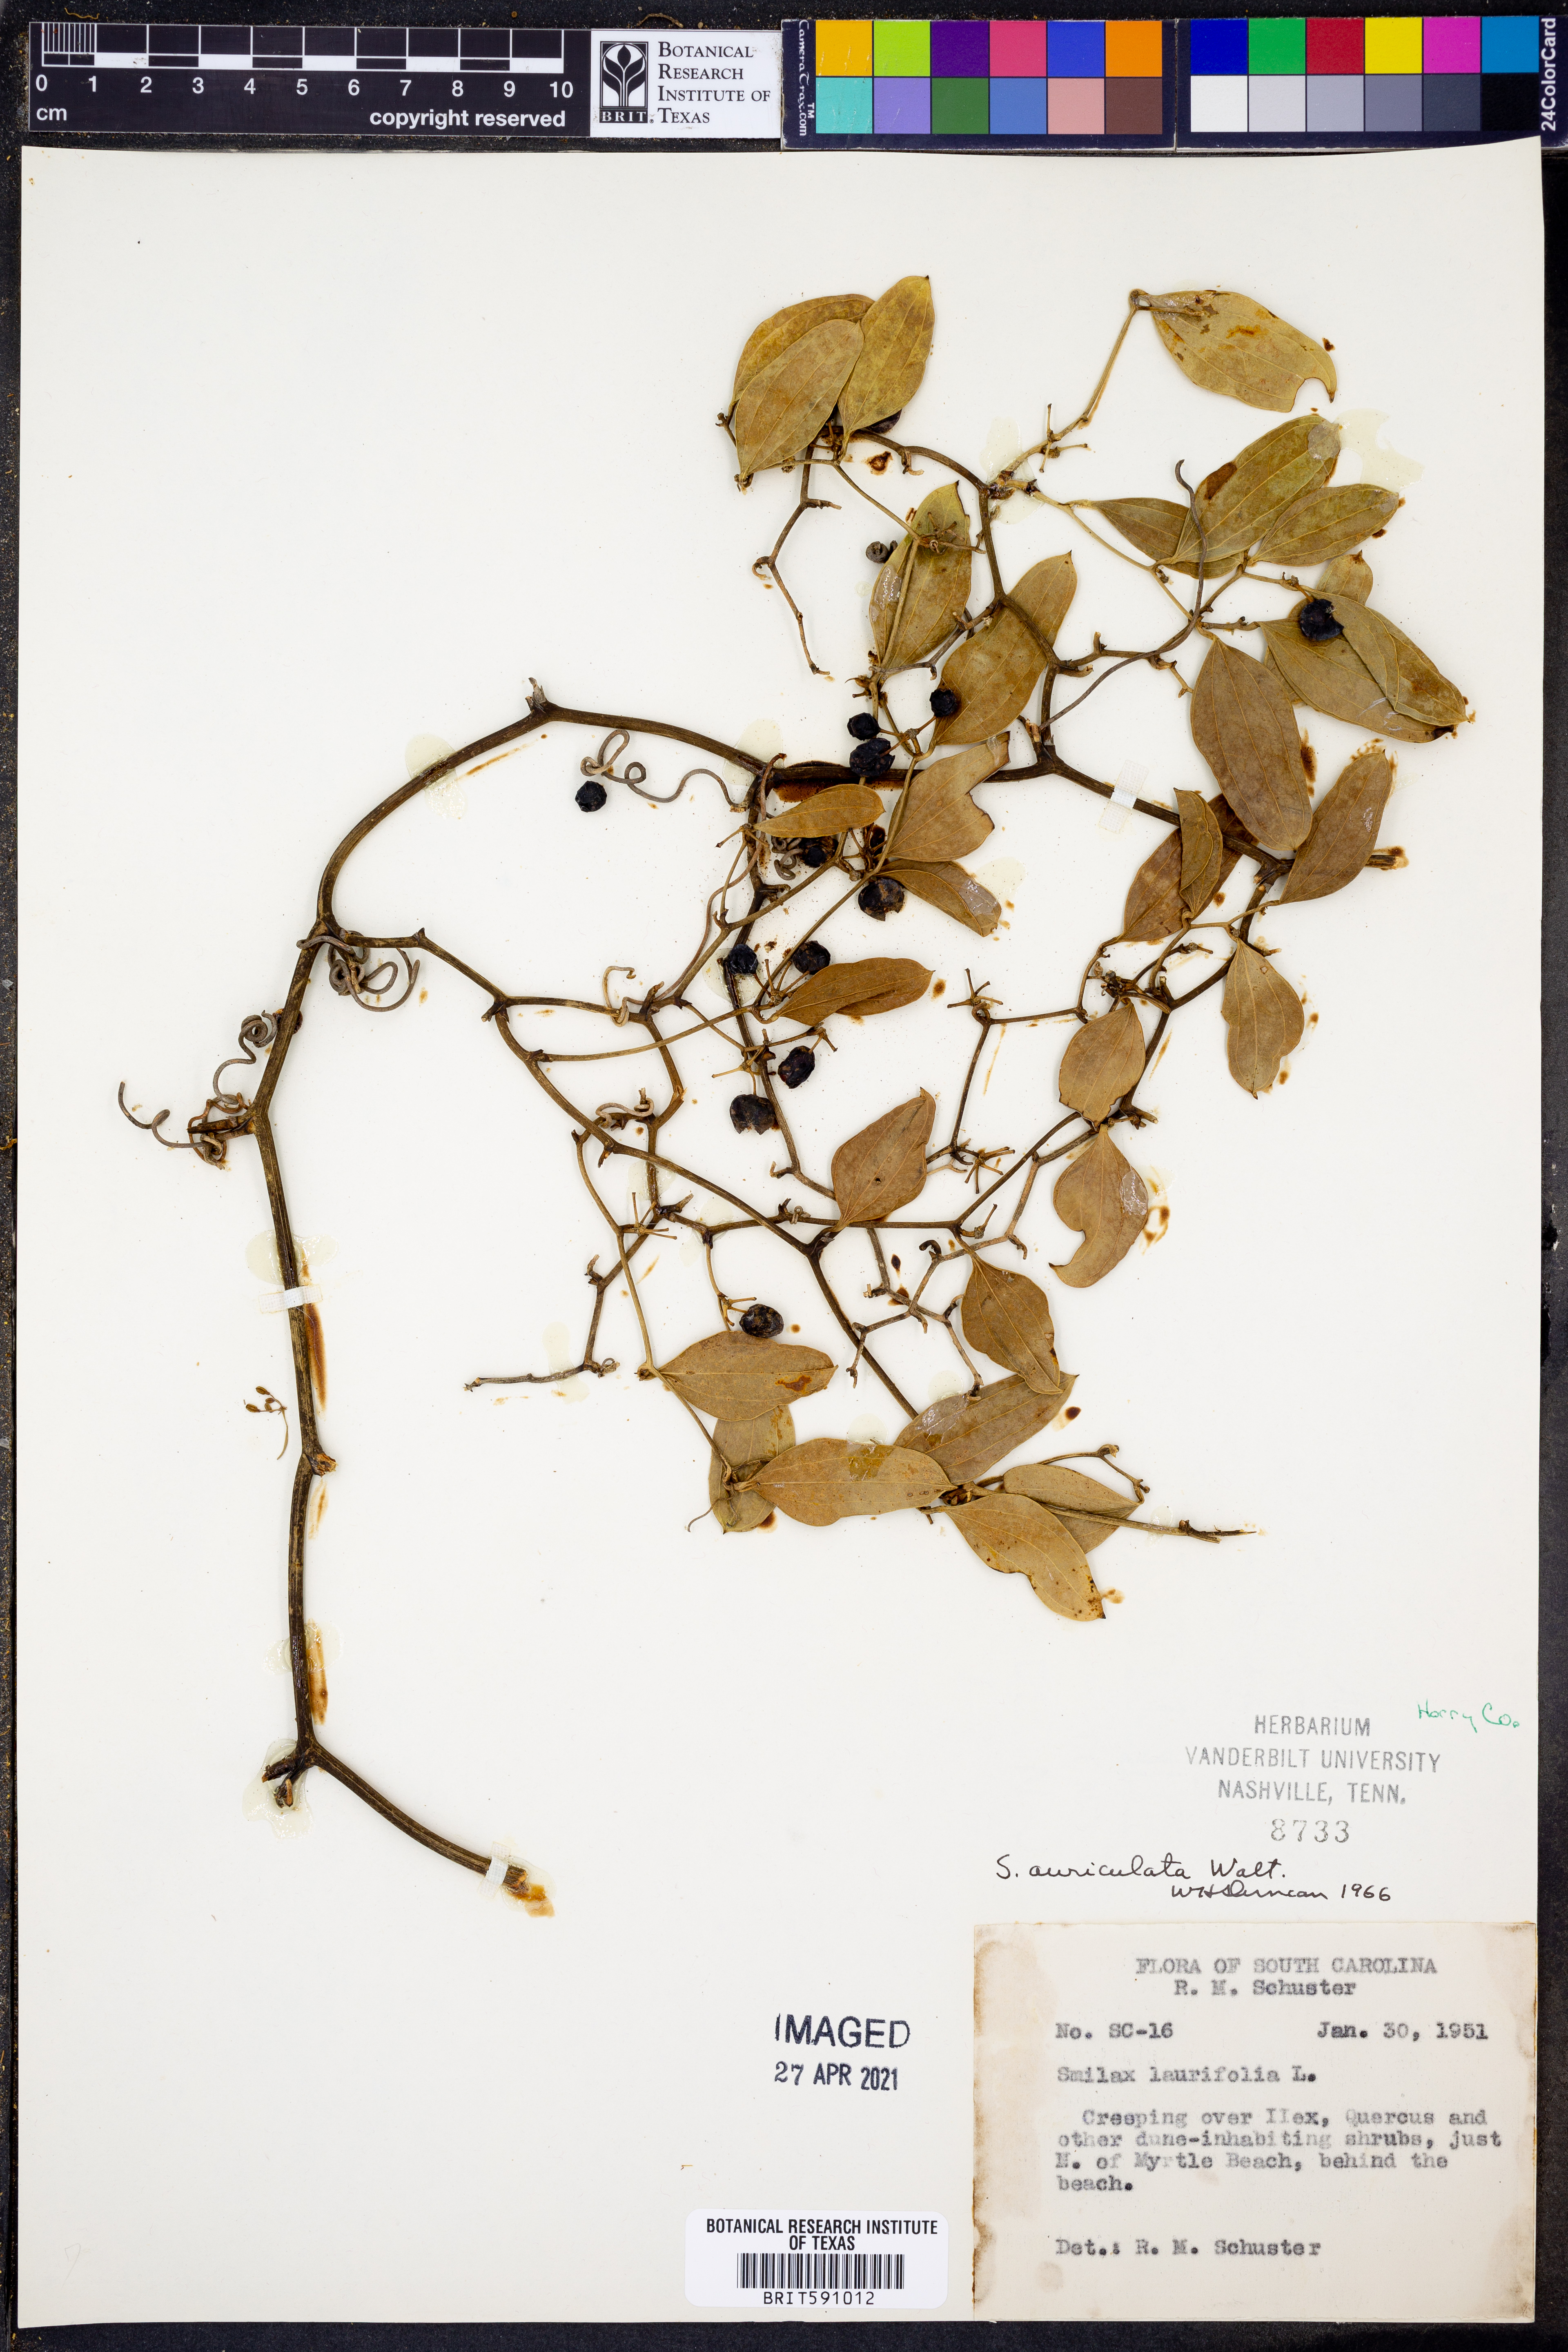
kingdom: Plantae
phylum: Tracheophyta
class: Liliopsida
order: Liliales
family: Smilacaceae
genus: Smilax
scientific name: Smilax auriculata
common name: Wild bamboo
